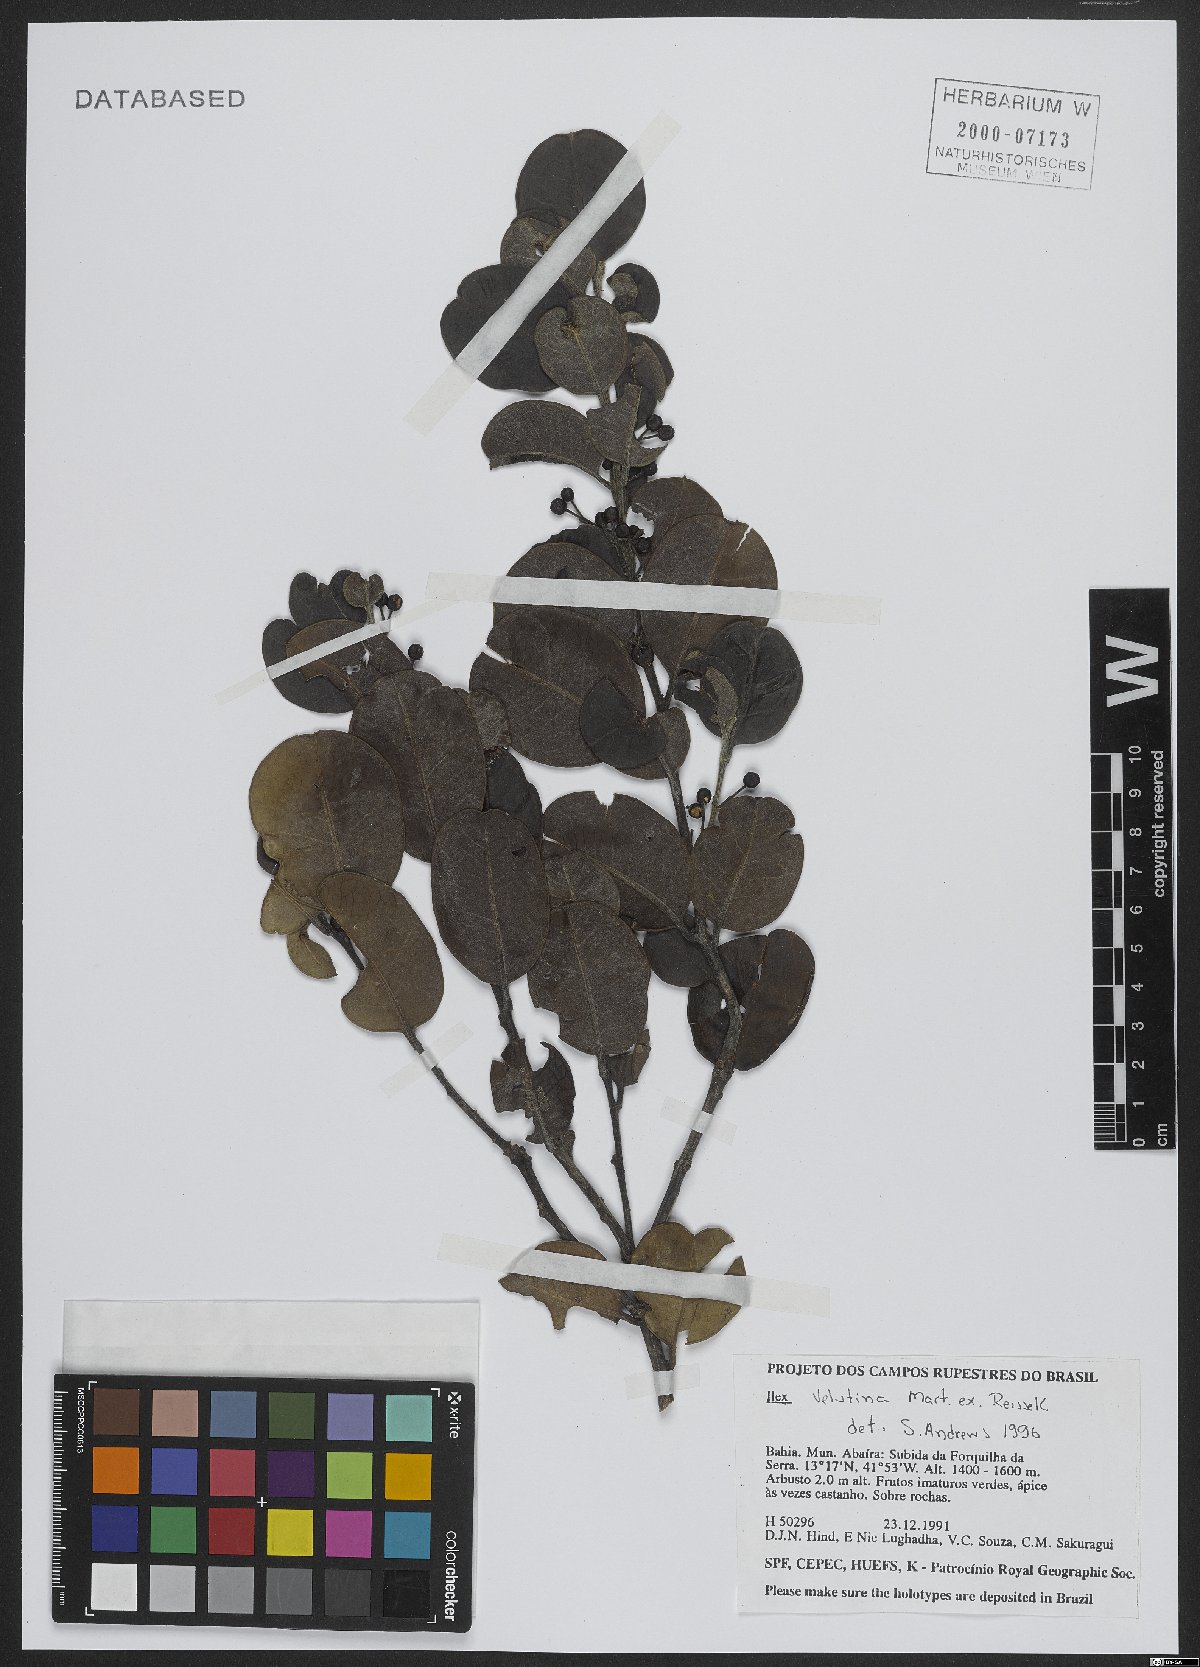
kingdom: Plantae
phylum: Tracheophyta
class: Magnoliopsida
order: Aquifoliales
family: Aquifoliaceae
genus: Ilex
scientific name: Ilex velutina
